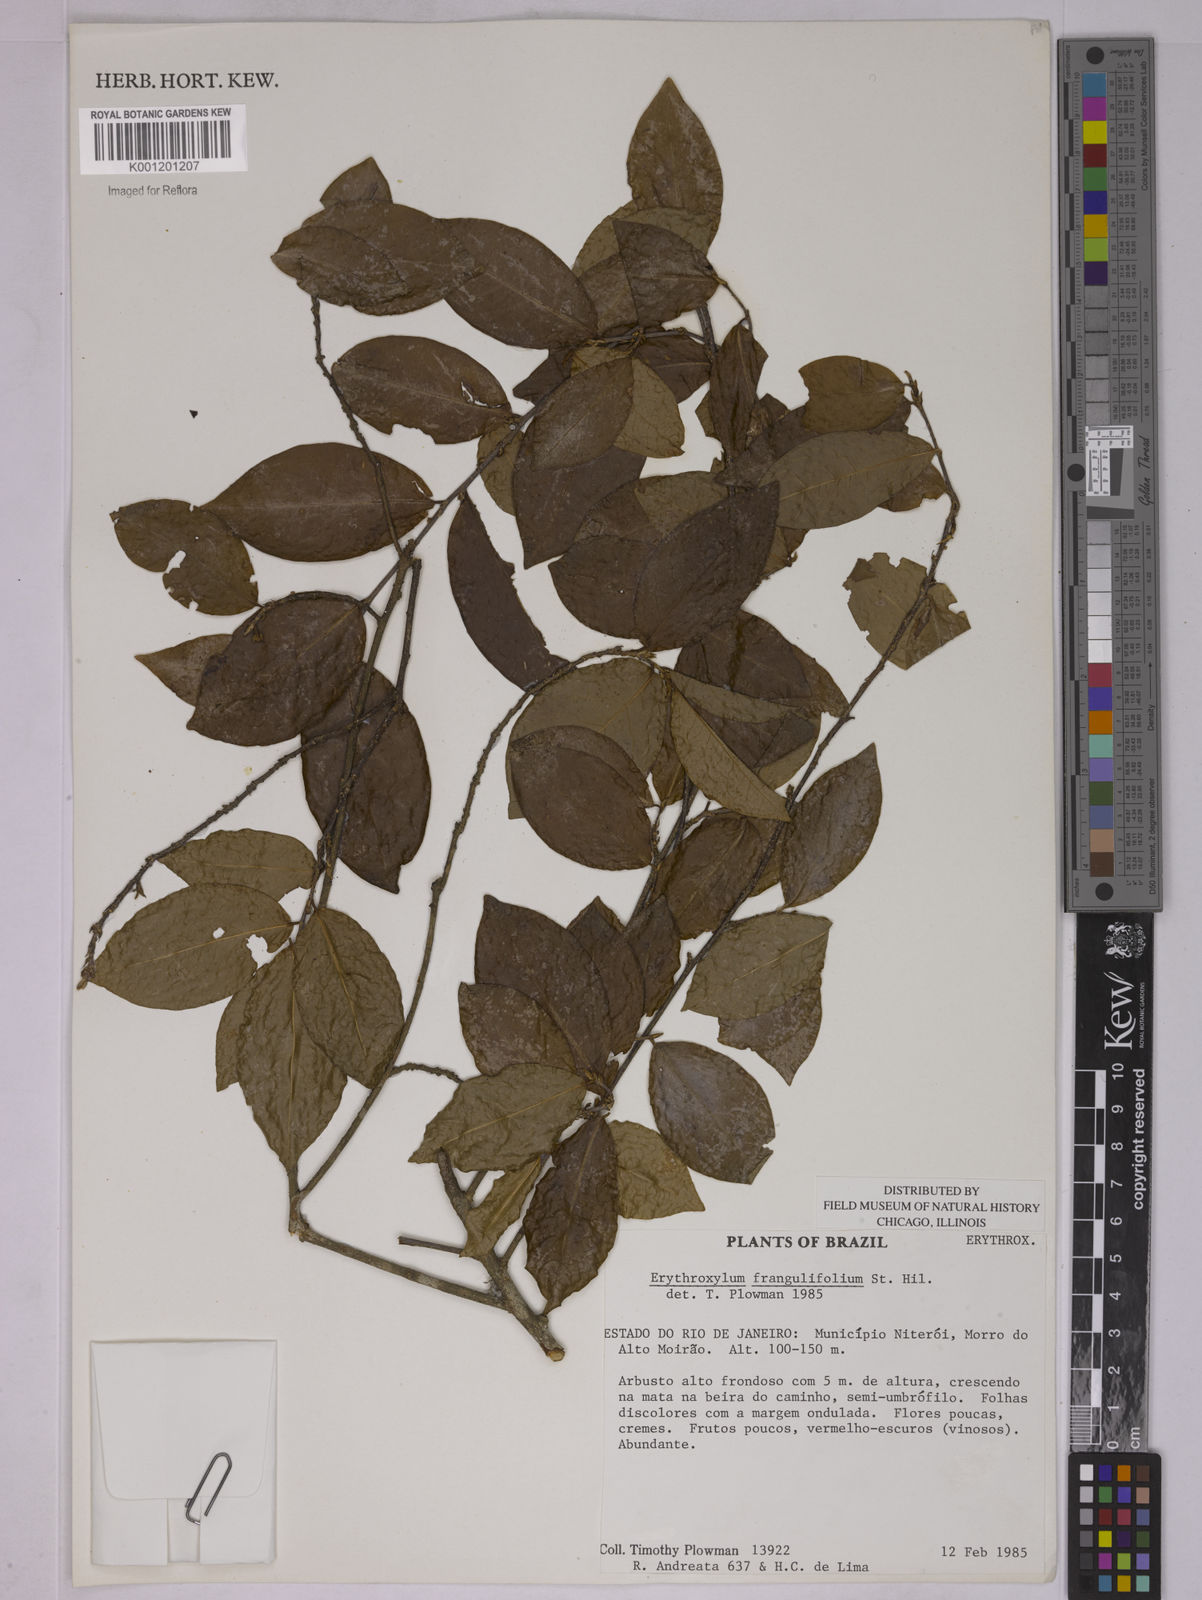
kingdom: Plantae
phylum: Tracheophyta
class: Magnoliopsida
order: Malpighiales
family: Erythroxylaceae
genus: Erythroxylum
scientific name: Erythroxylum frangulifolium
